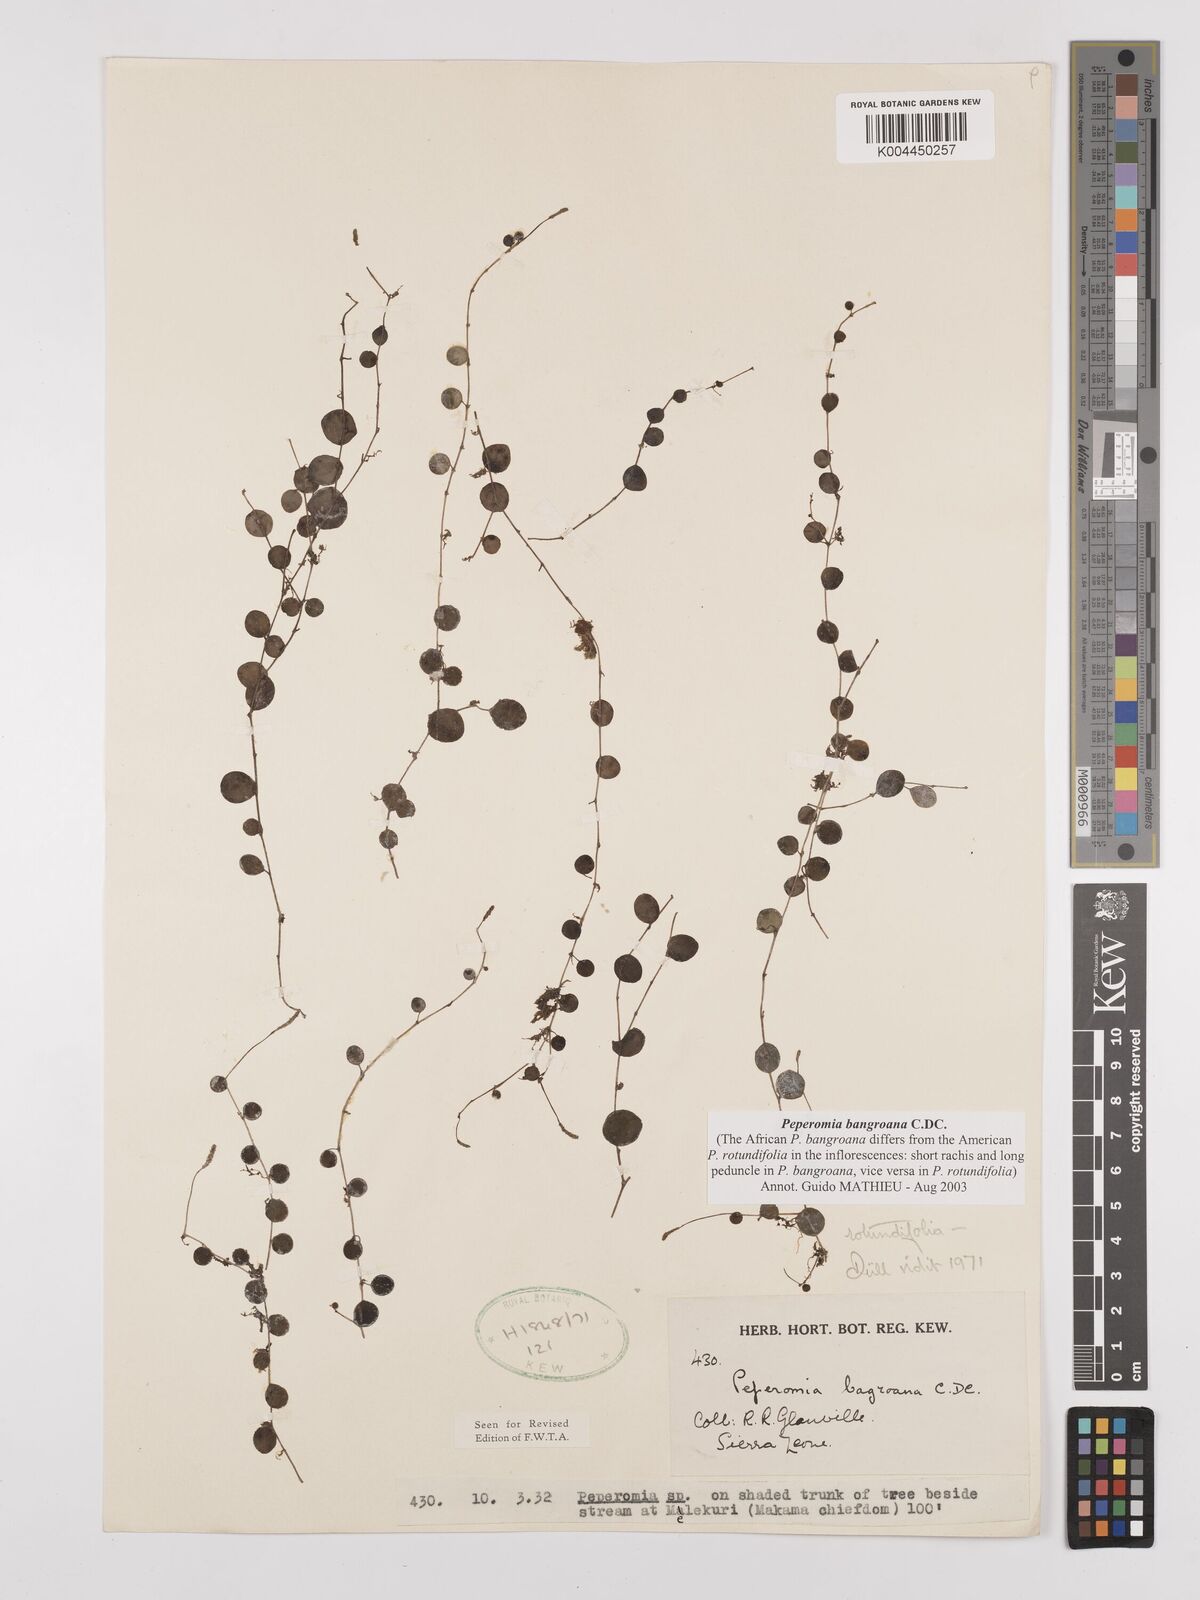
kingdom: Plantae
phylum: Tracheophyta
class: Magnoliopsida
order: Piperales
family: Piperaceae
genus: Peperomia
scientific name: Peperomia bangroana
